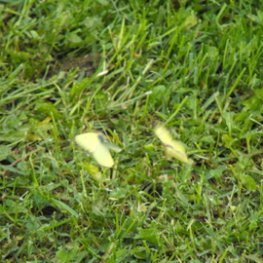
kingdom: Animalia
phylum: Arthropoda
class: Insecta
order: Lepidoptera
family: Pieridae
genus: Colias
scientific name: Colias eurytheme
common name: Orange Sulphur
